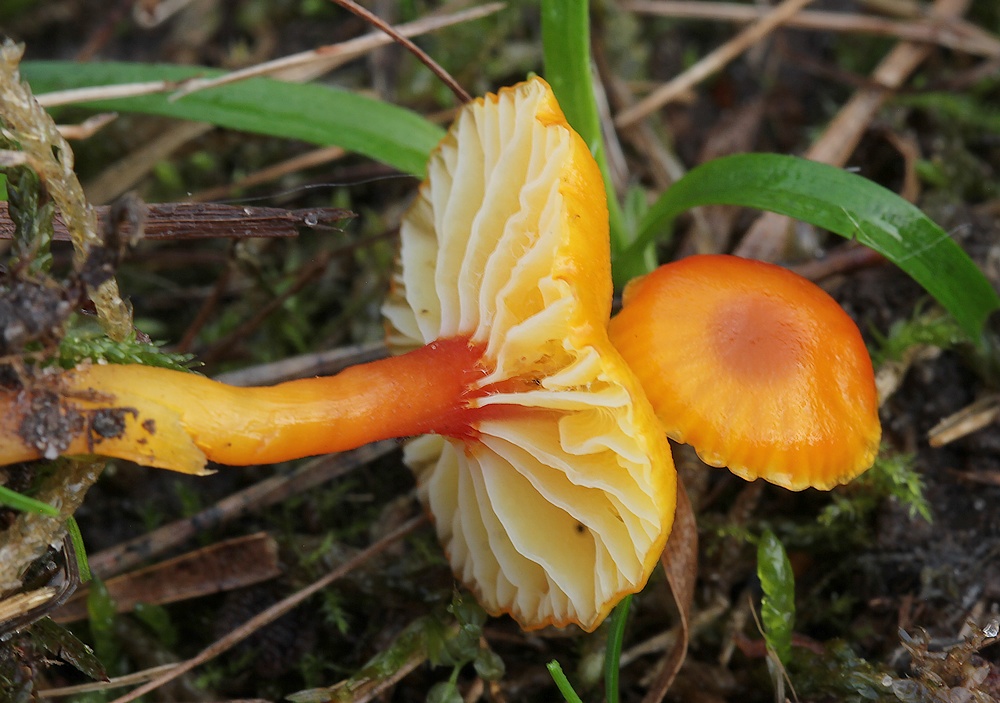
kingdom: Fungi
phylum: Basidiomycota
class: Agaricomycetes
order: Agaricales
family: Hygrophoraceae
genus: Hygrocybe
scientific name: Hygrocybe insipida
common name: liden vokshat
